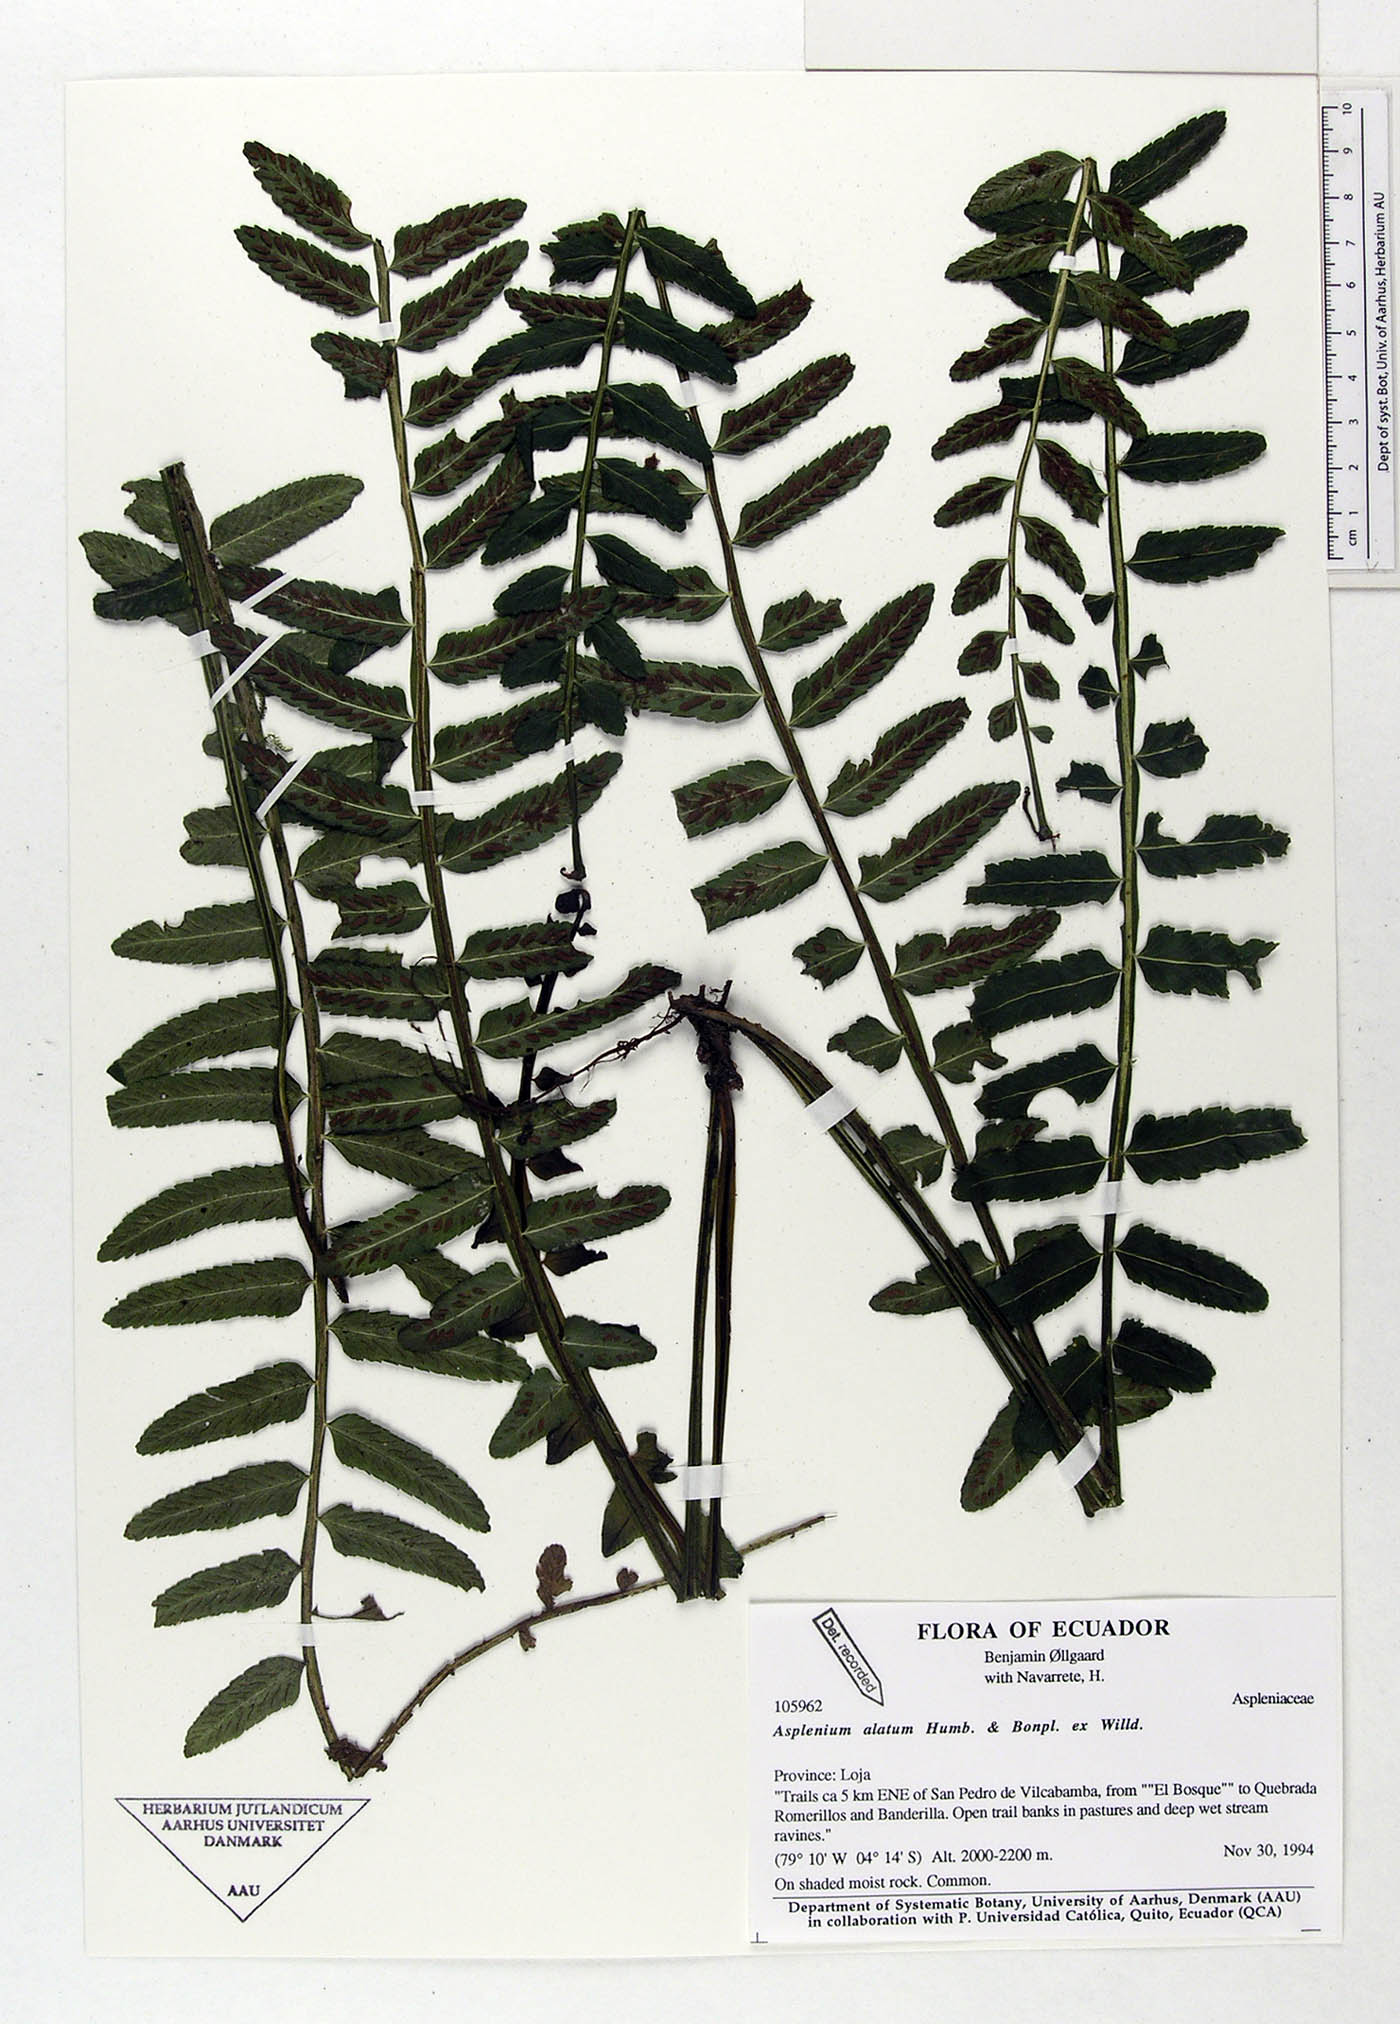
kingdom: Plantae
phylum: Tracheophyta
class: Polypodiopsida
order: Polypodiales
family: Aspleniaceae
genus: Asplenium
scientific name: Asplenium alatum
